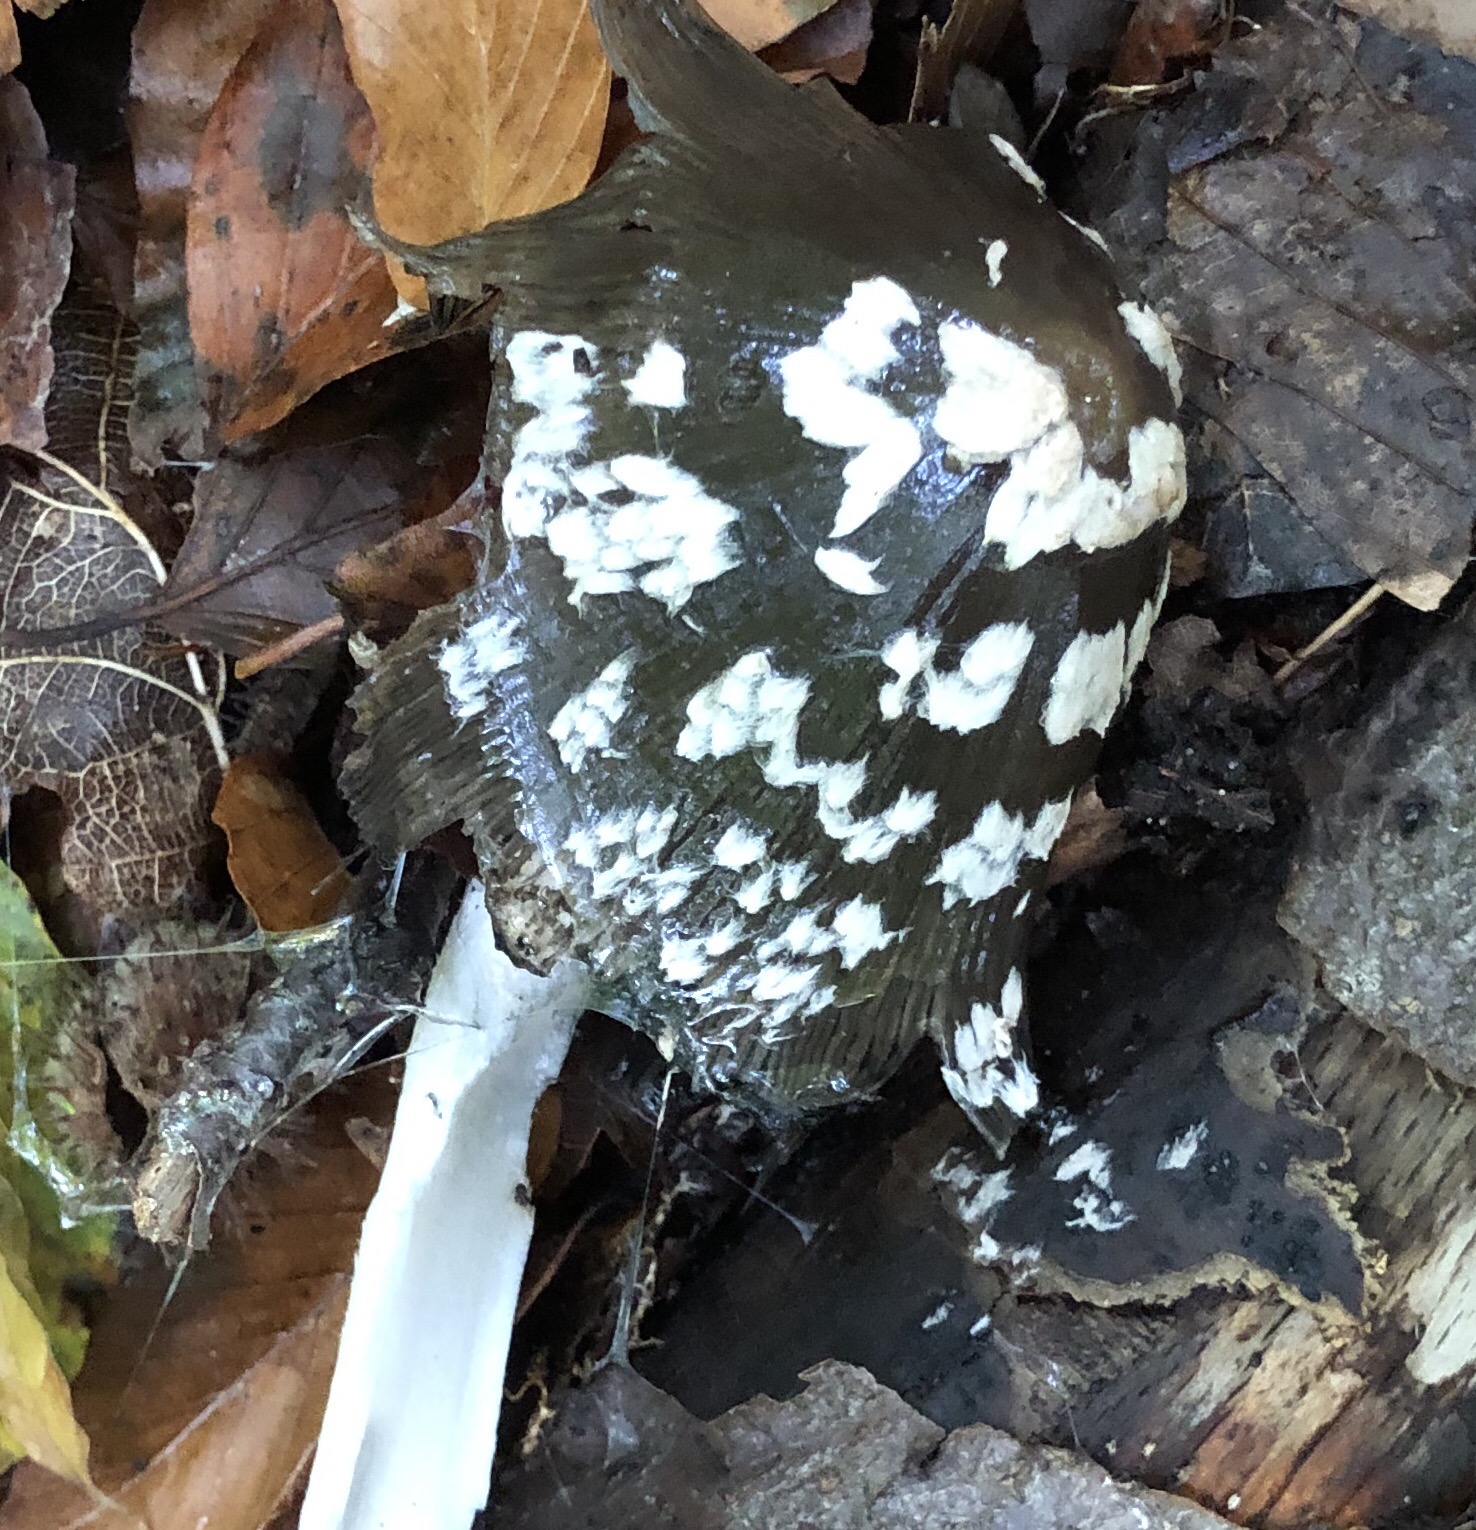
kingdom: Fungi
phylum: Basidiomycota
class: Agaricomycetes
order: Agaricales
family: Psathyrellaceae
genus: Coprinopsis
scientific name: Coprinopsis picacea
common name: skade-blækhat
